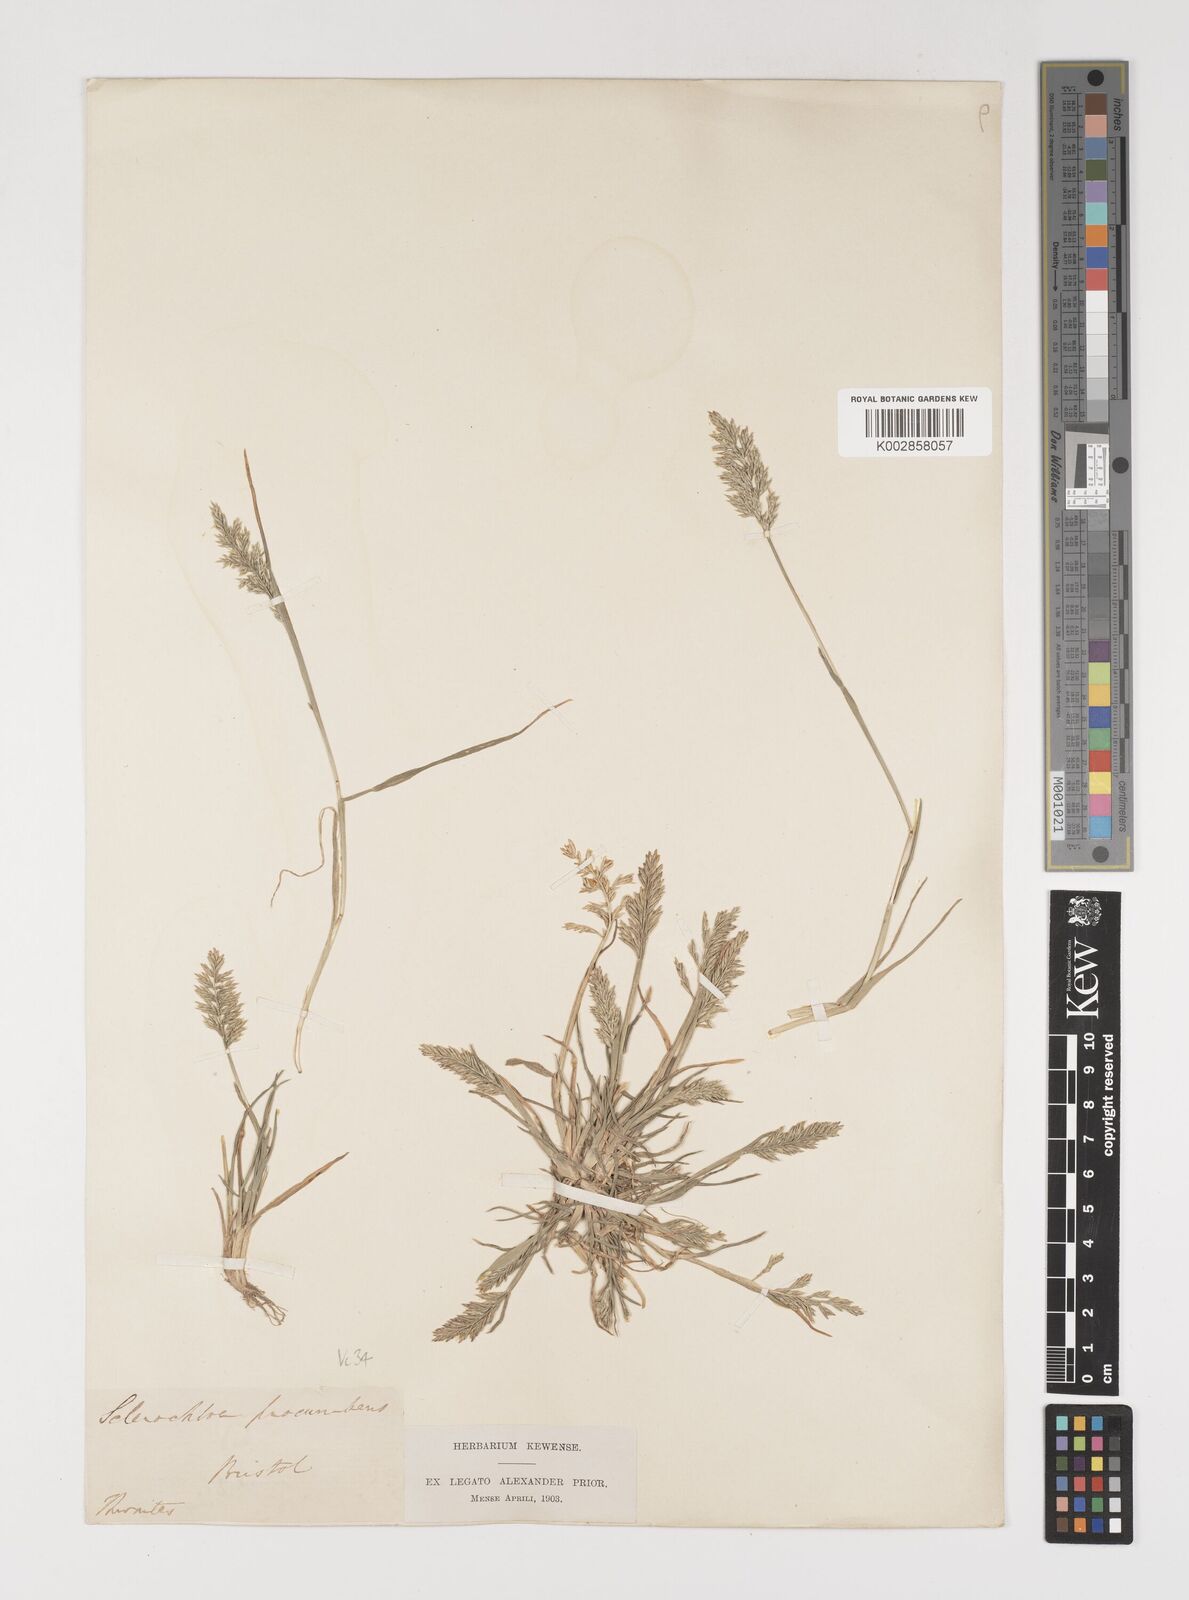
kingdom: Plantae
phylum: Tracheophyta
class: Liliopsida
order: Poales
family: Poaceae
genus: Puccinellia
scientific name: Puccinellia rupestris
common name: Stiff saltmarsh-grass
